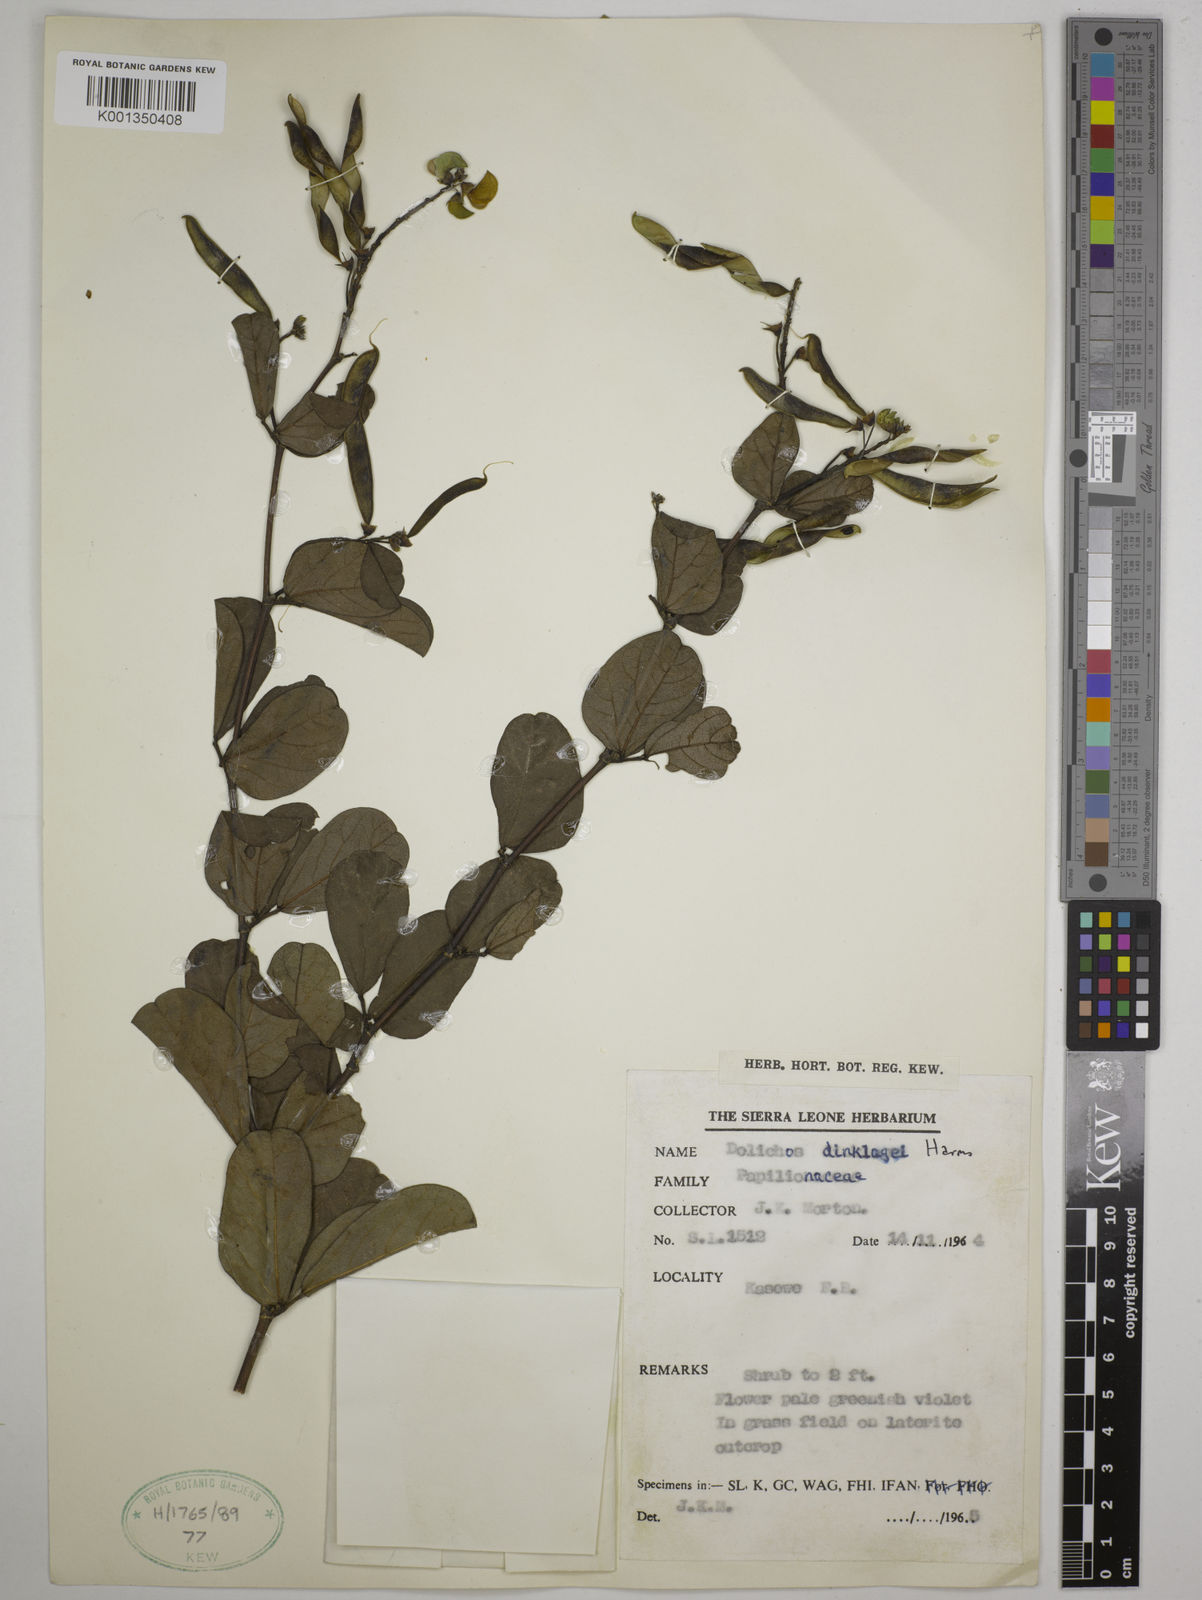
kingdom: Plantae
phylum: Tracheophyta
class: Magnoliopsida
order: Fabales
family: Fabaceae
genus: Dolichos
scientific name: Dolichos dinklagei
